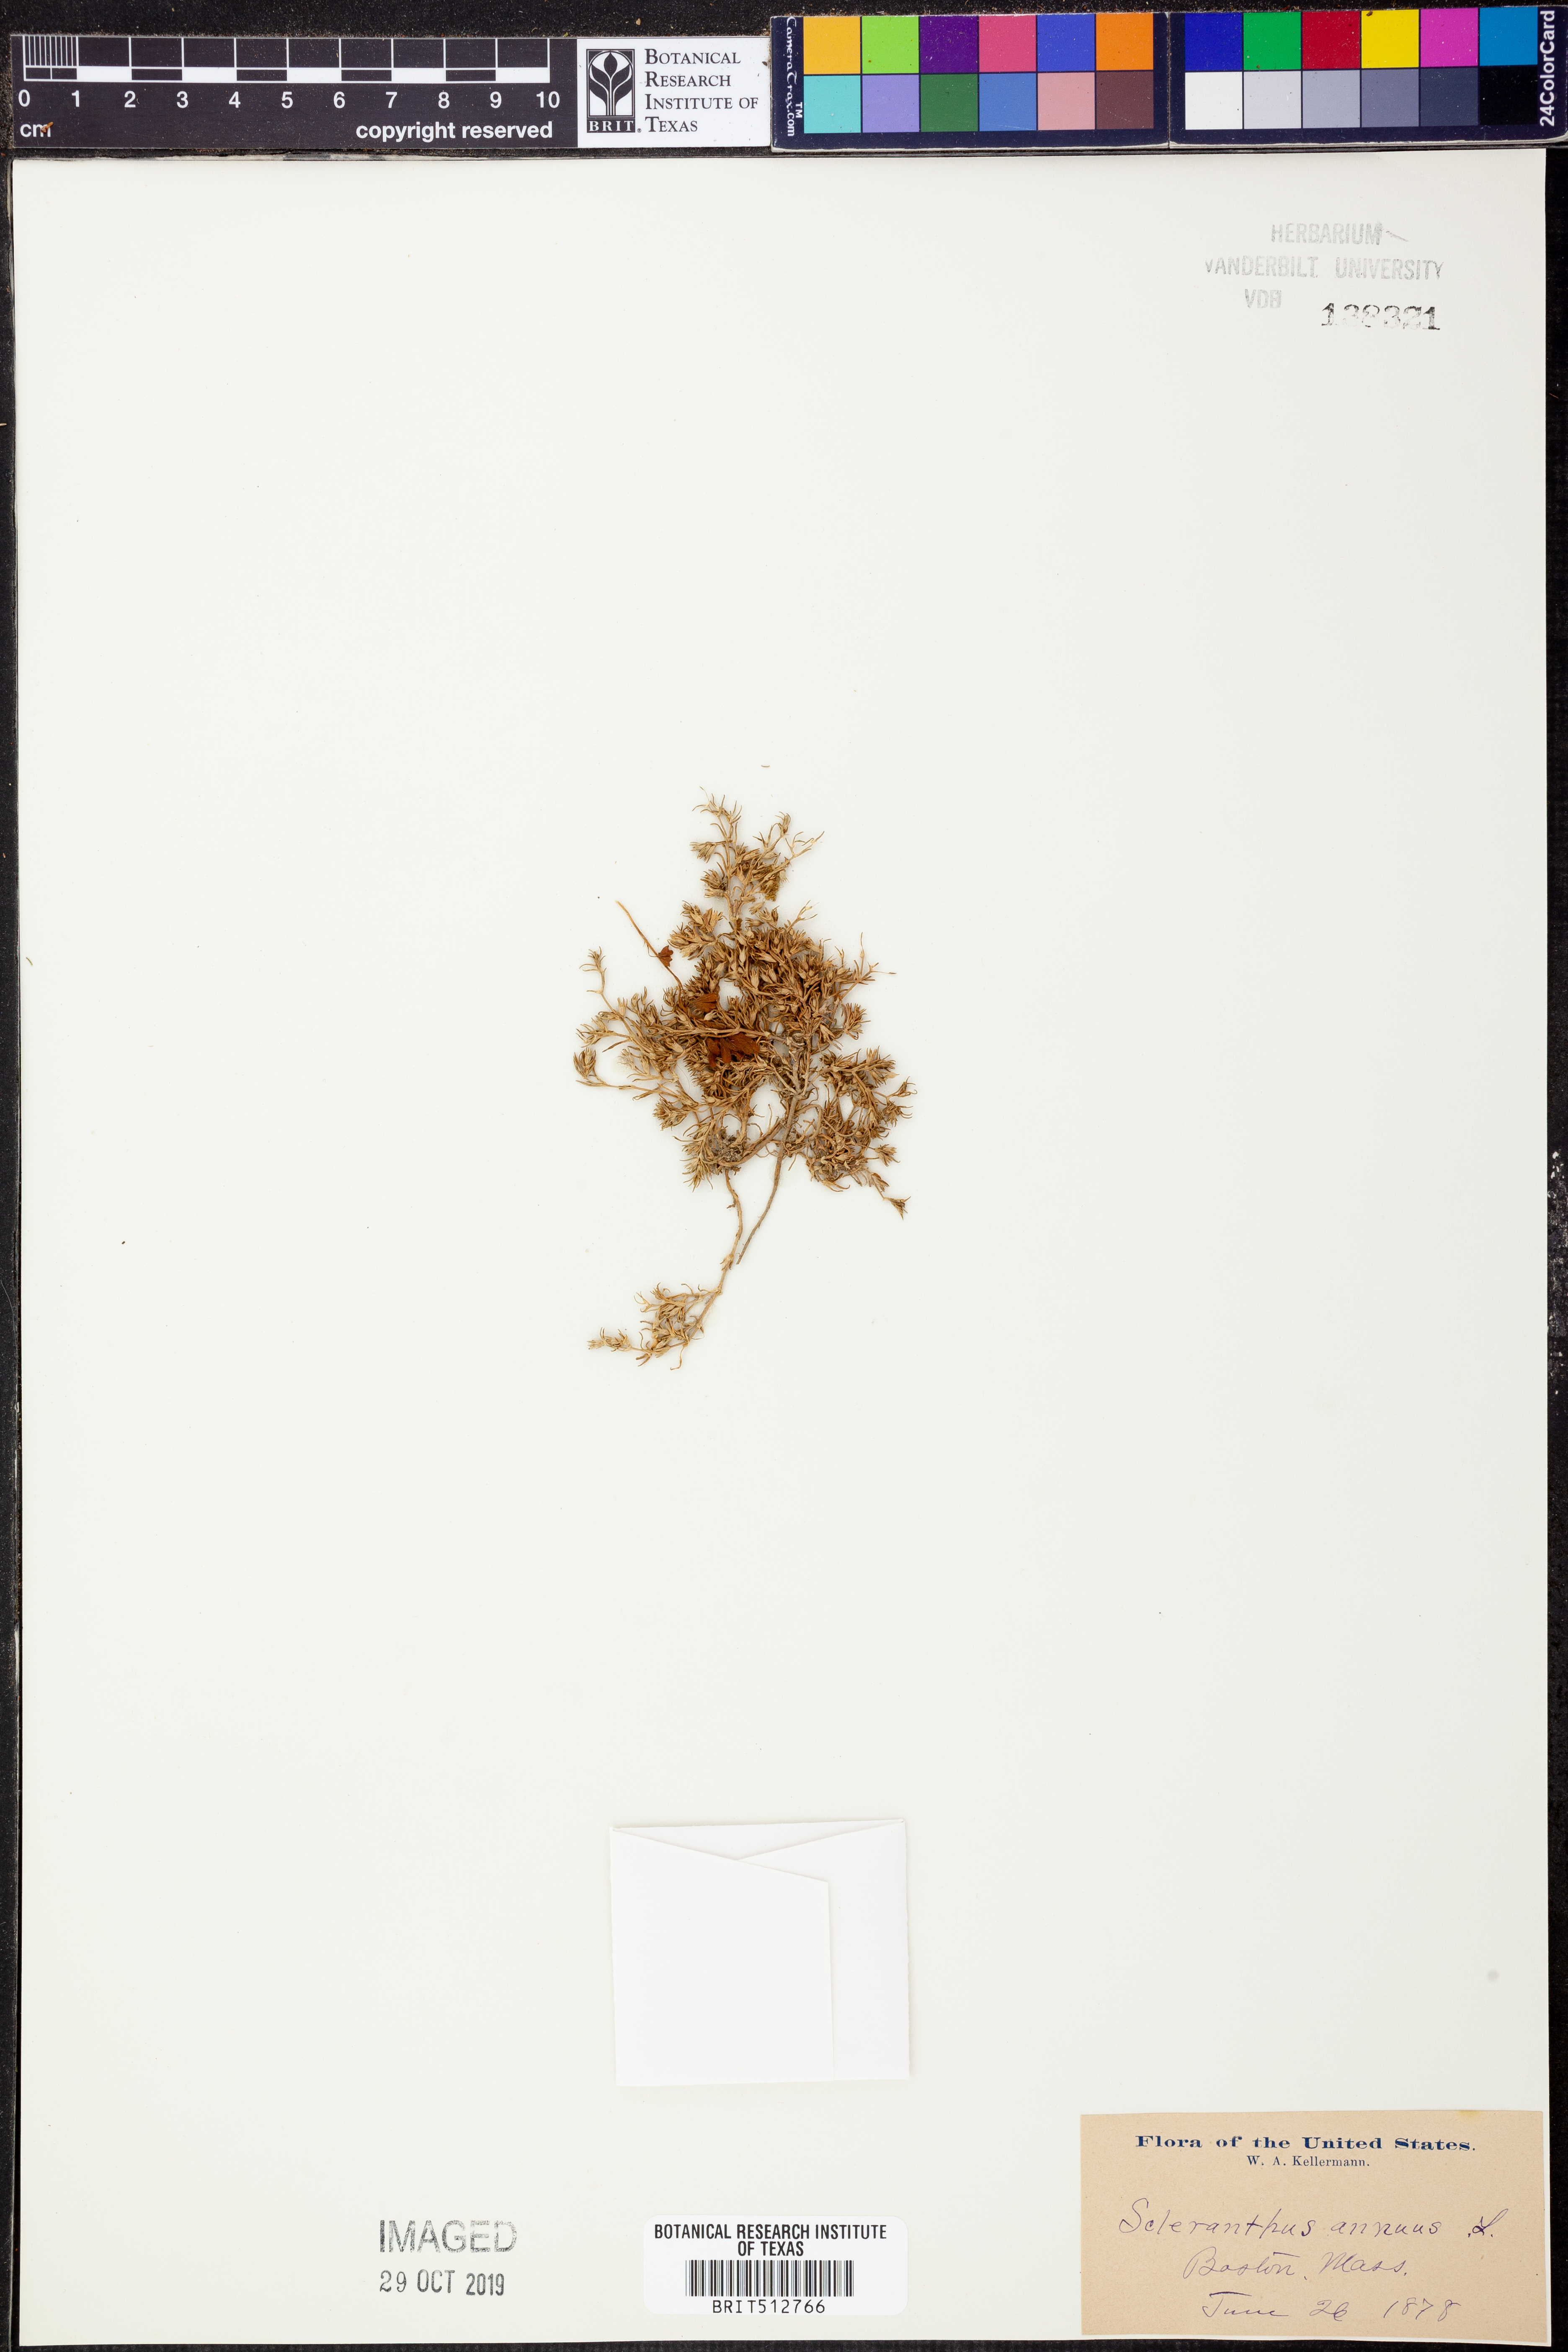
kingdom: Plantae
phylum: Tracheophyta
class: Magnoliopsida
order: Caryophyllales
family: Caryophyllaceae
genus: Scleranthus
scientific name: Scleranthus annuus
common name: Annual knawel
